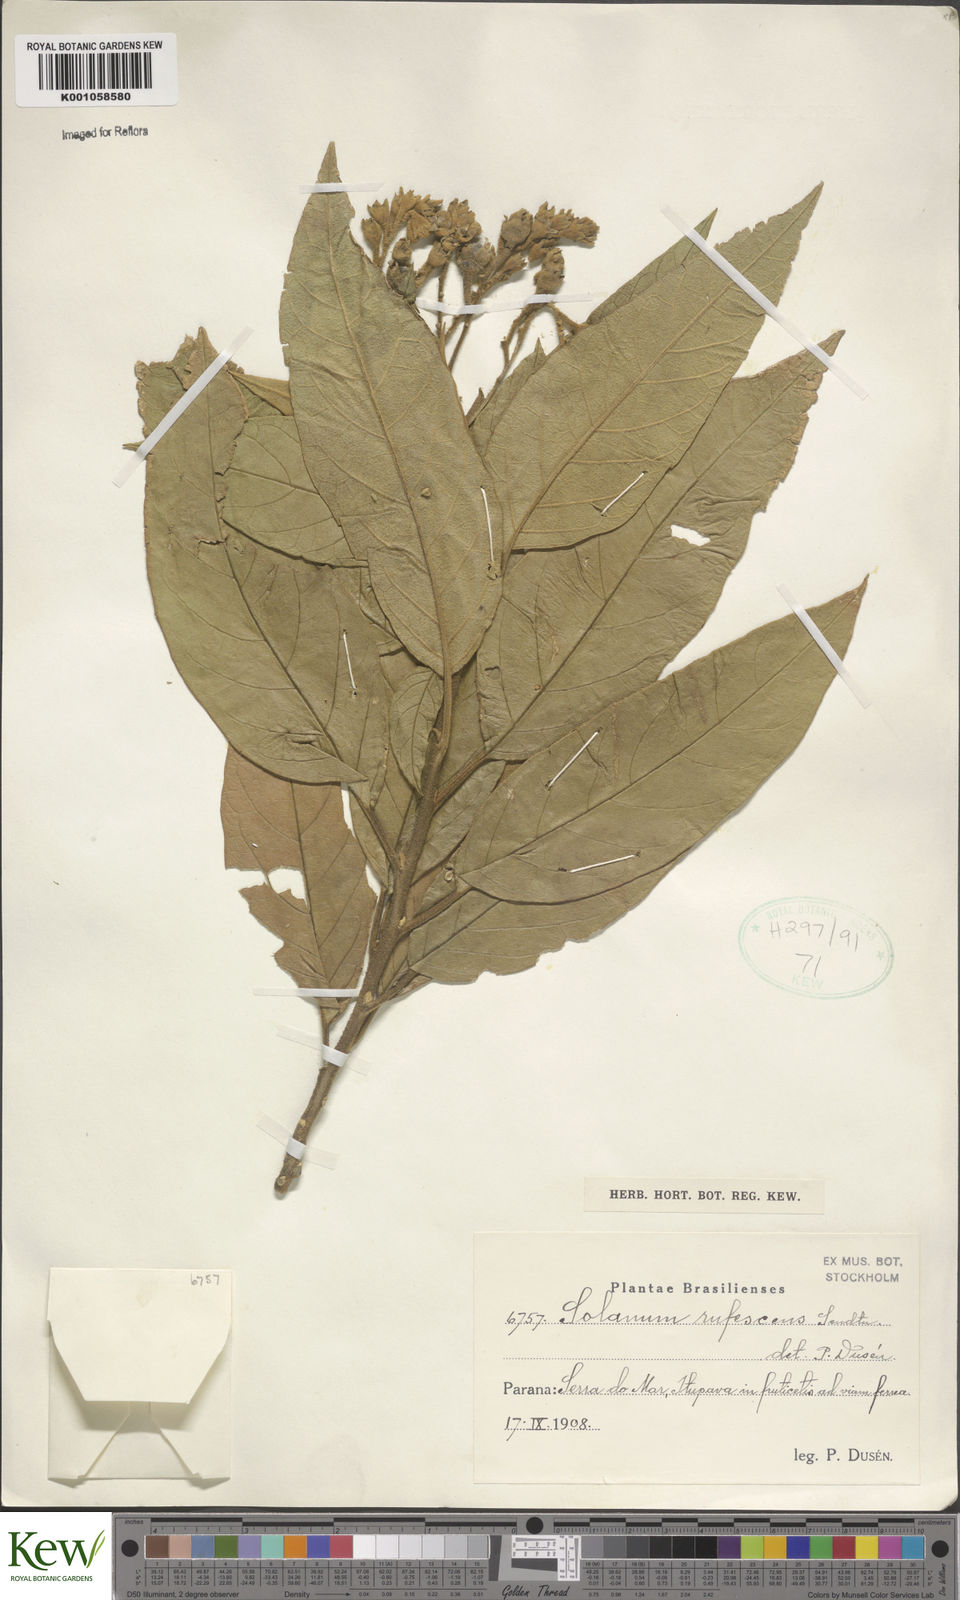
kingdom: Plantae
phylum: Tracheophyta
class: Magnoliopsida
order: Solanales
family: Solanaceae
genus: Solanum
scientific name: Solanum rufescens
